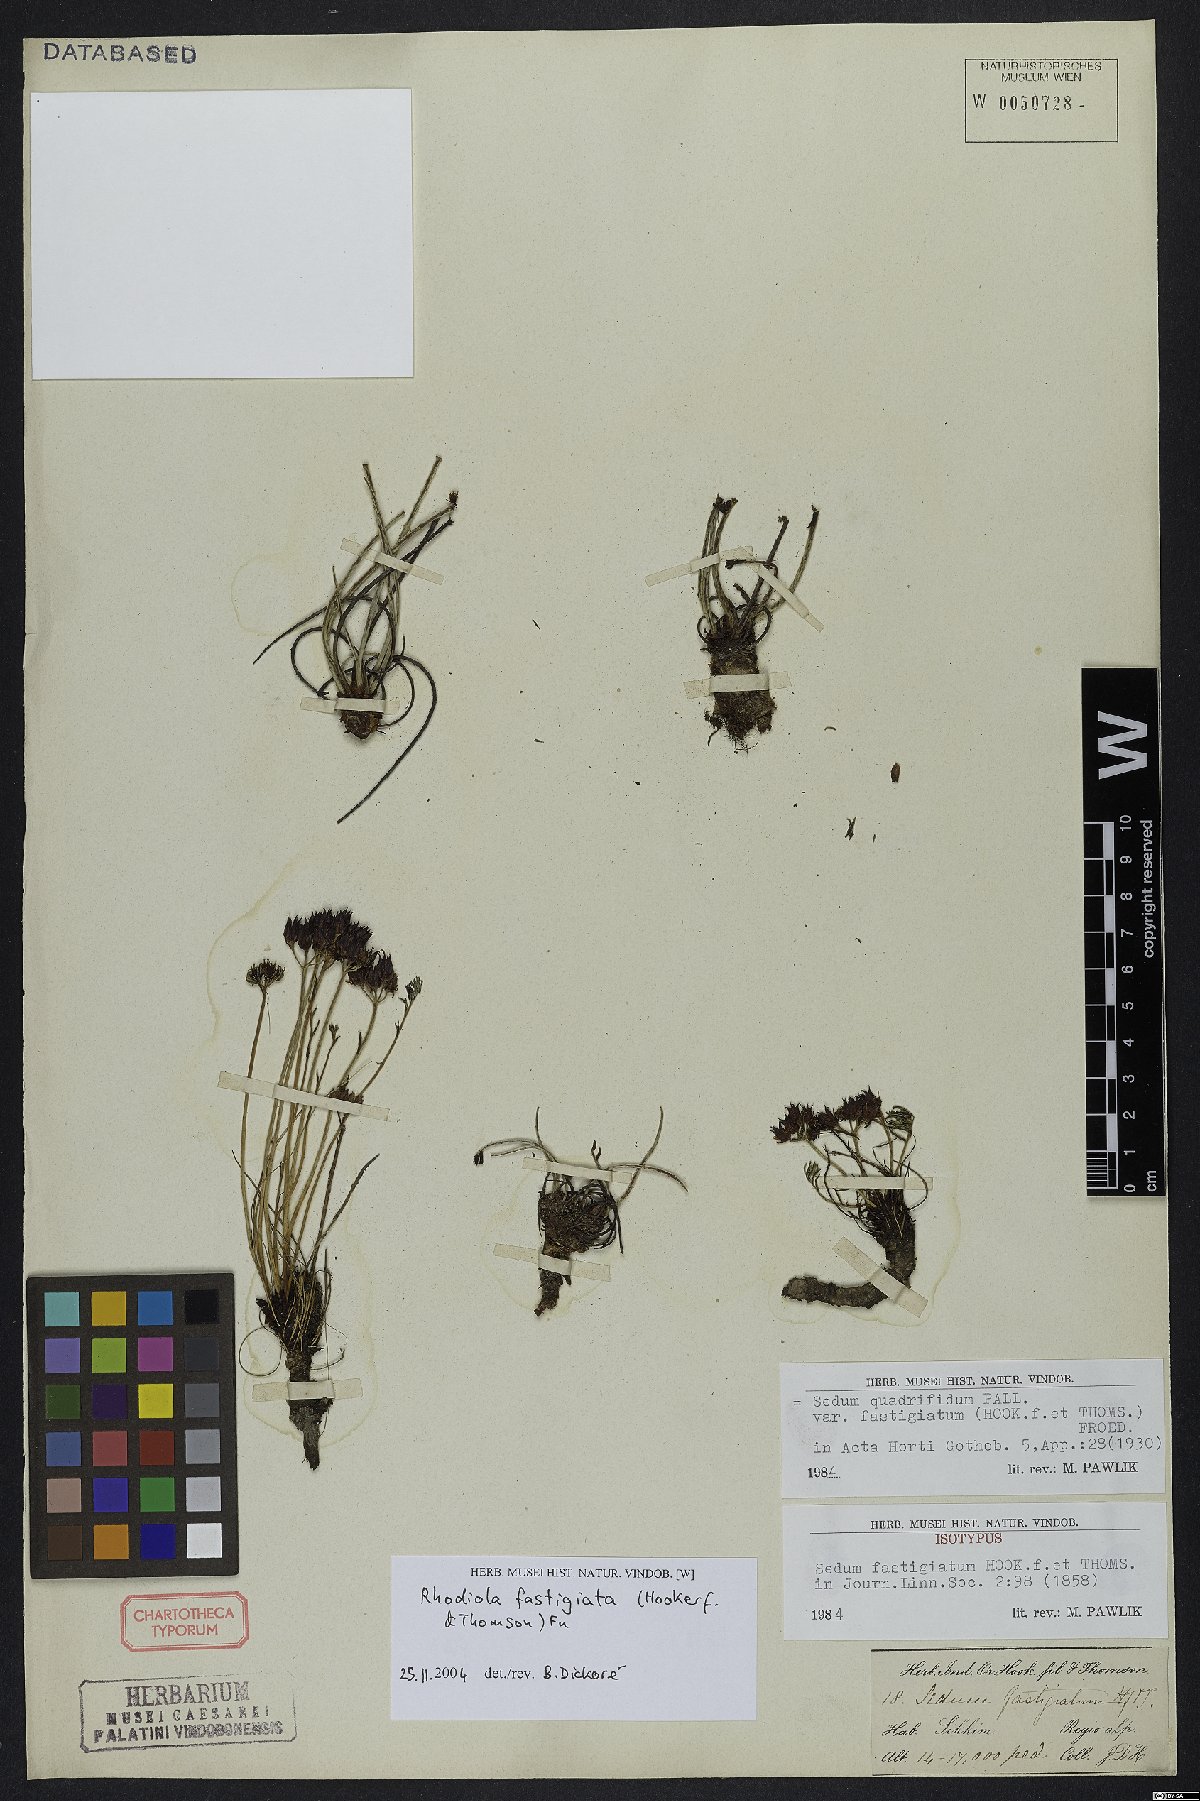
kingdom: Plantae
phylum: Tracheophyta
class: Magnoliopsida
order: Saxifragales
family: Crassulaceae
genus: Rhodiola
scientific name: Rhodiola fastigiata
